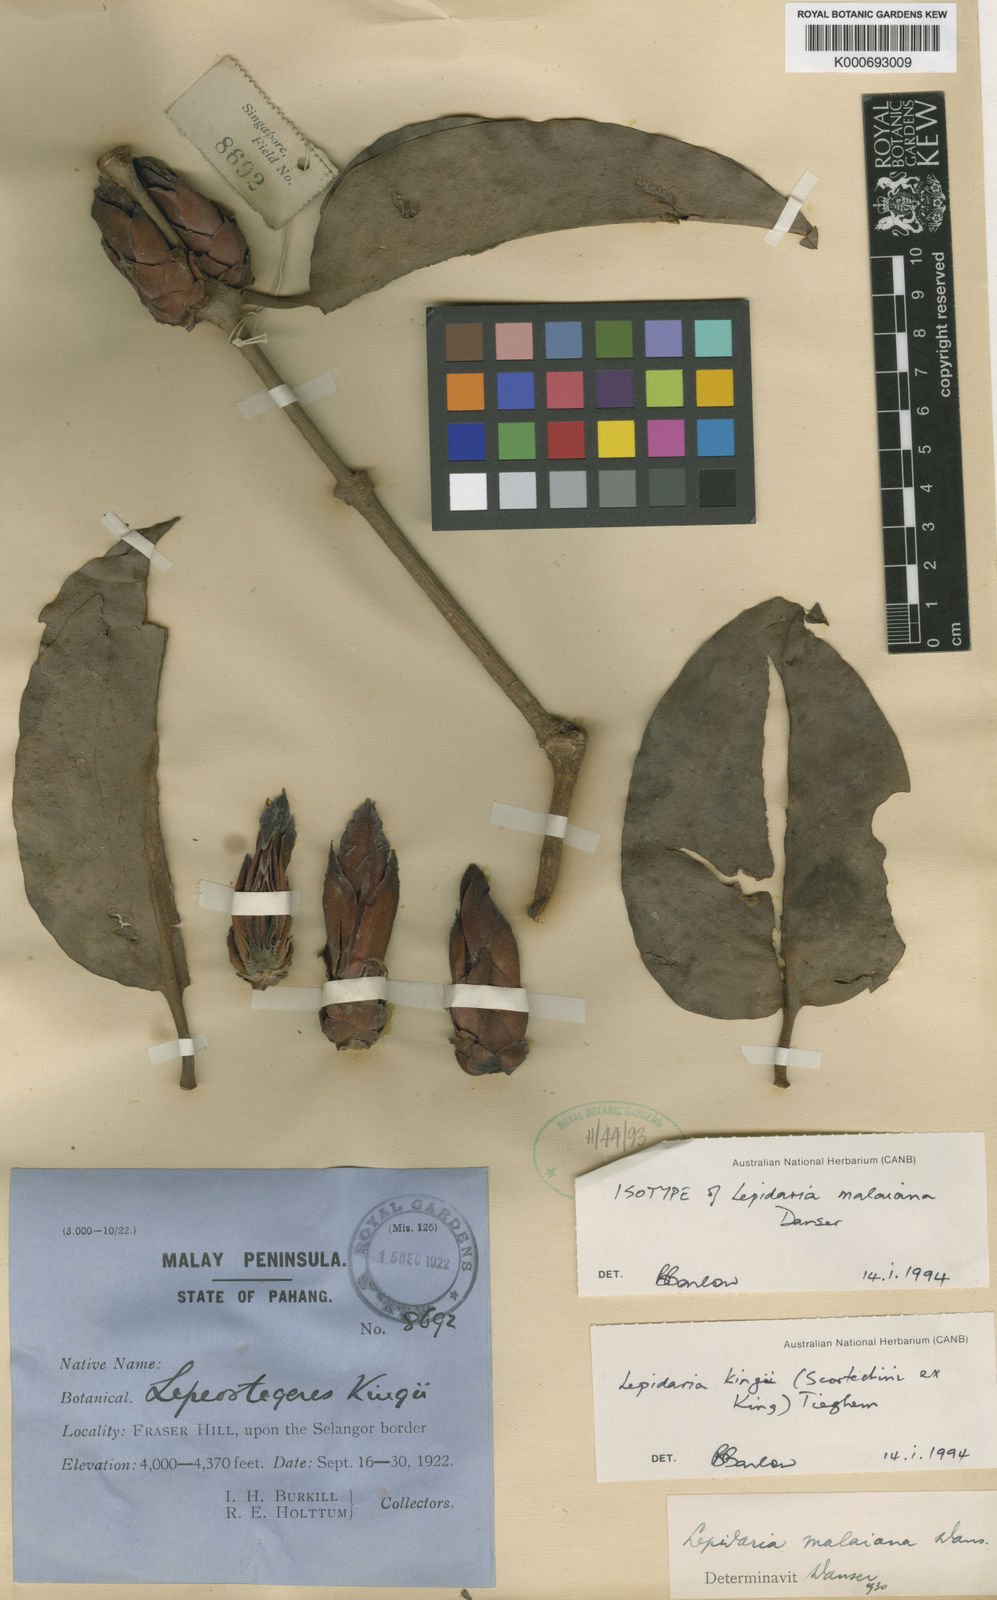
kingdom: Plantae
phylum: Tracheophyta
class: Magnoliopsida
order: Santalales
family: Loranthaceae
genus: Lepidaria
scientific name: Lepidaria
